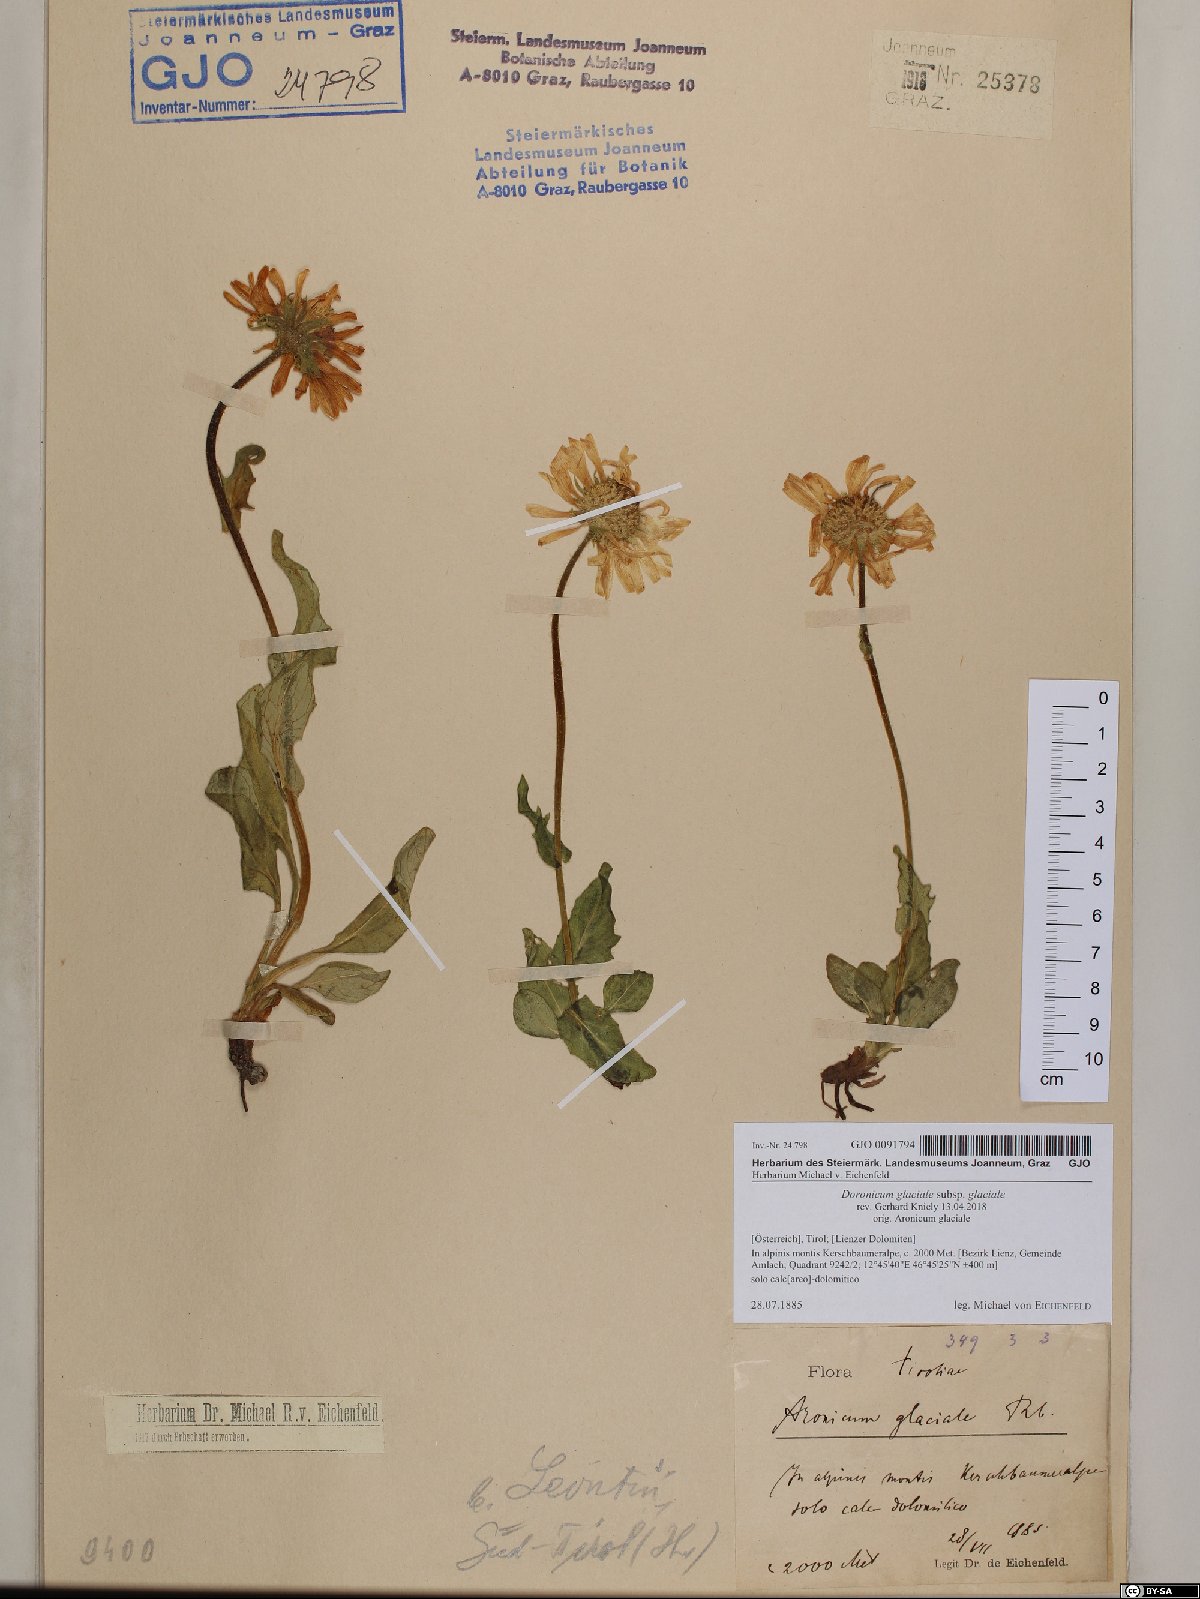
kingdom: Plantae
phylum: Tracheophyta
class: Magnoliopsida
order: Asterales
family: Asteraceae
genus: Doronicum
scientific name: Doronicum glaciale
